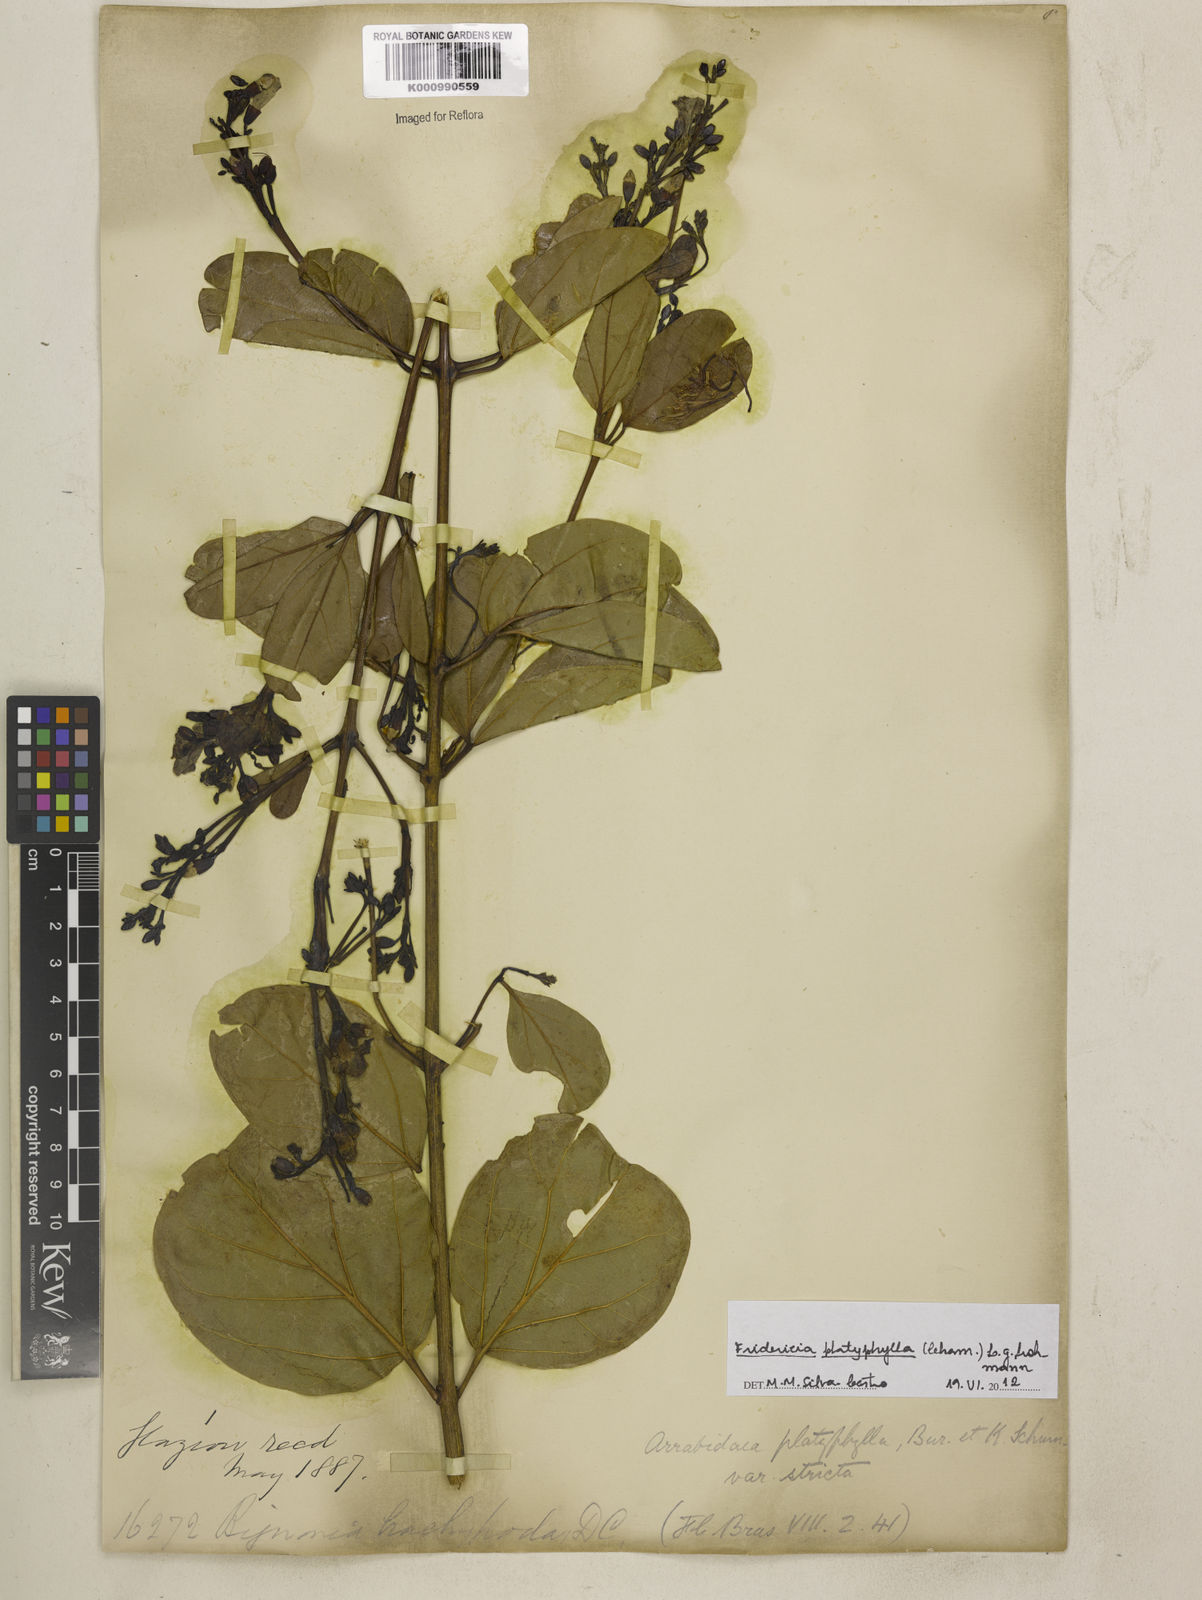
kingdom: Plantae
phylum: Tracheophyta
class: Magnoliopsida
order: Lamiales
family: Bignoniaceae
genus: Fridericia
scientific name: Fridericia platyphylla
